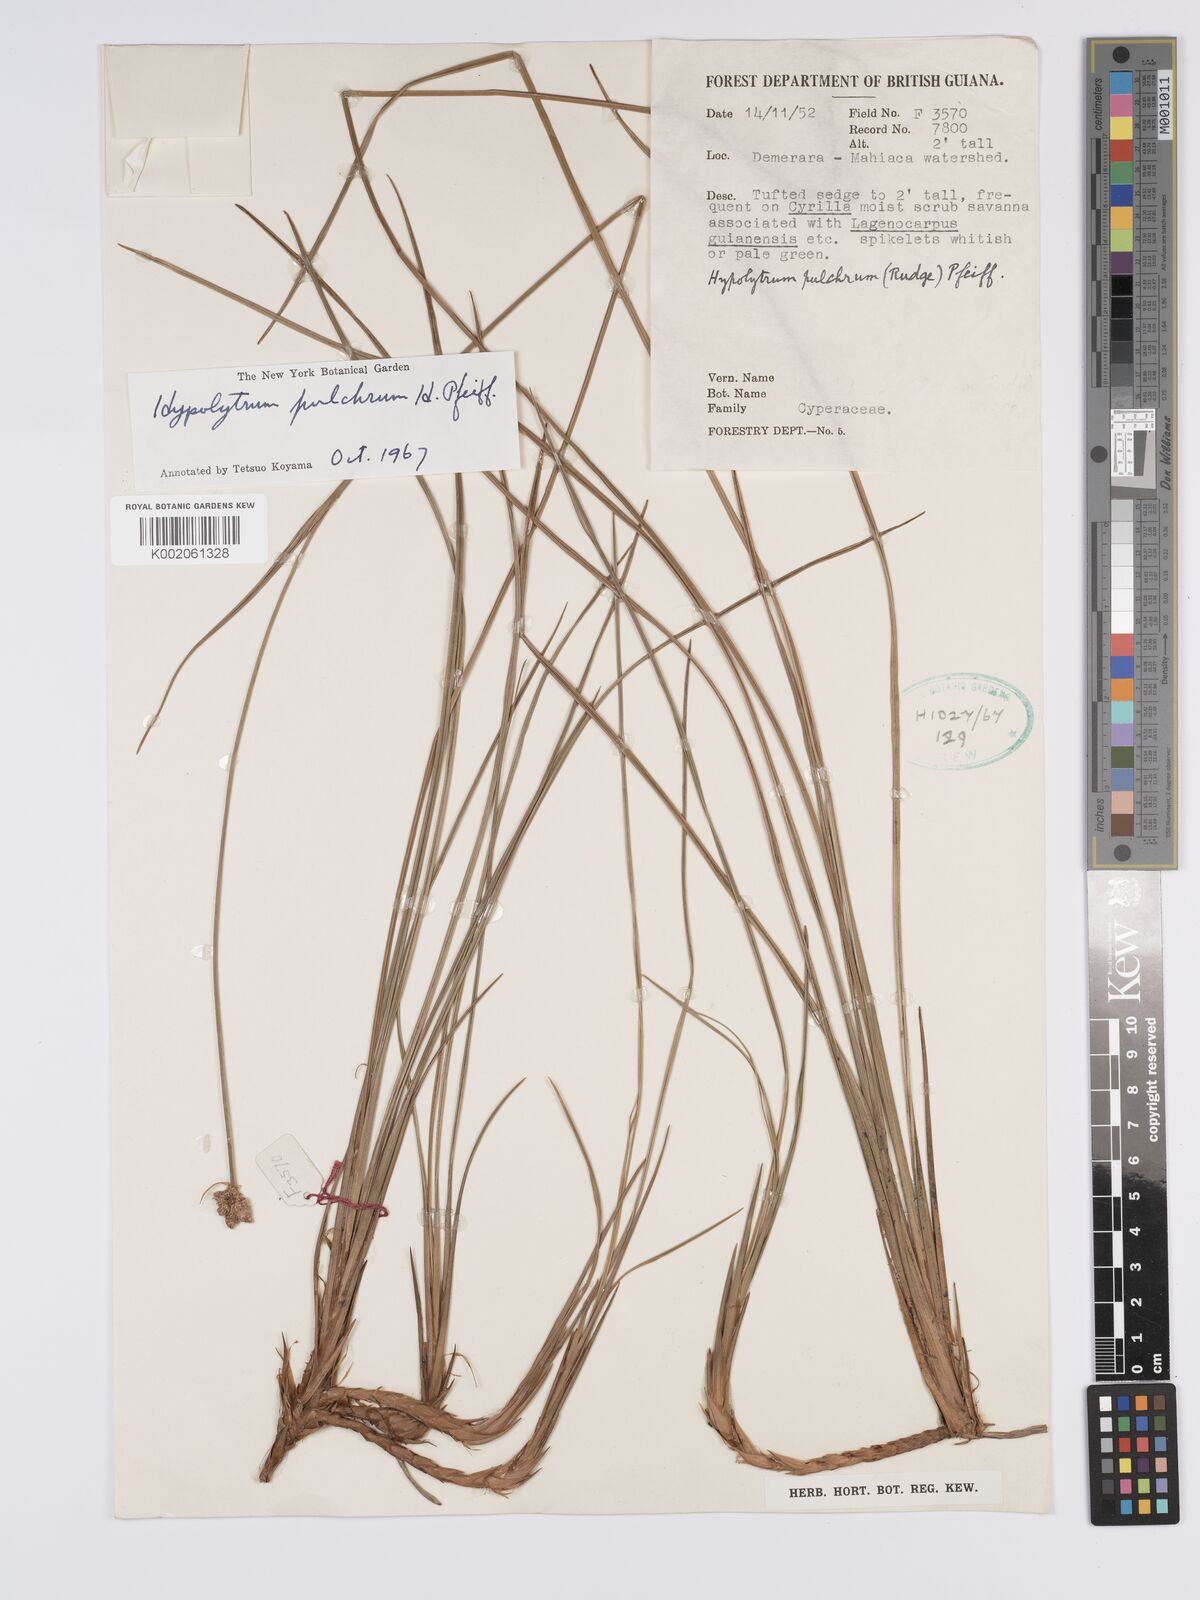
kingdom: Plantae
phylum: Tracheophyta
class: Liliopsida
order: Poales
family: Cyperaceae
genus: Hypolytrum
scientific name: Hypolytrum pulchrum
